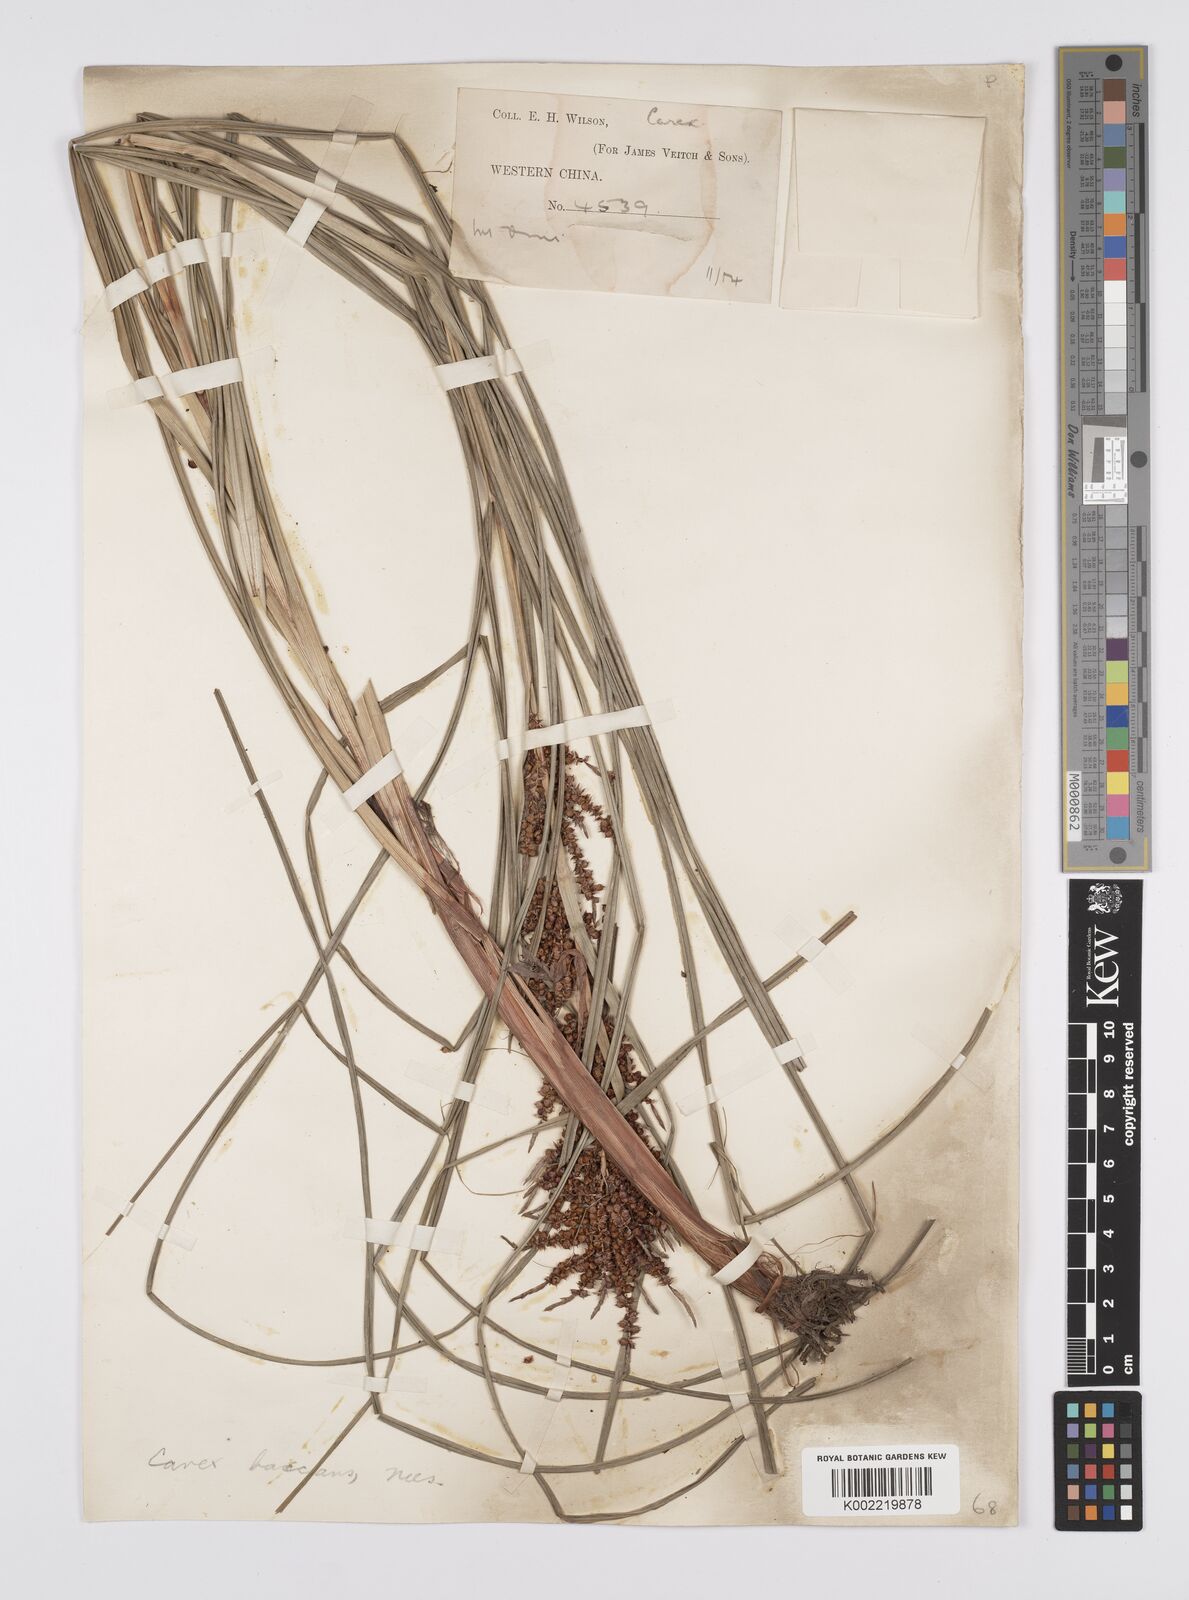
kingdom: Plantae
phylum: Tracheophyta
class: Liliopsida
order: Poales
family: Cyperaceae
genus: Carex
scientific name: Carex baccans
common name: Crimson seeded sedge
